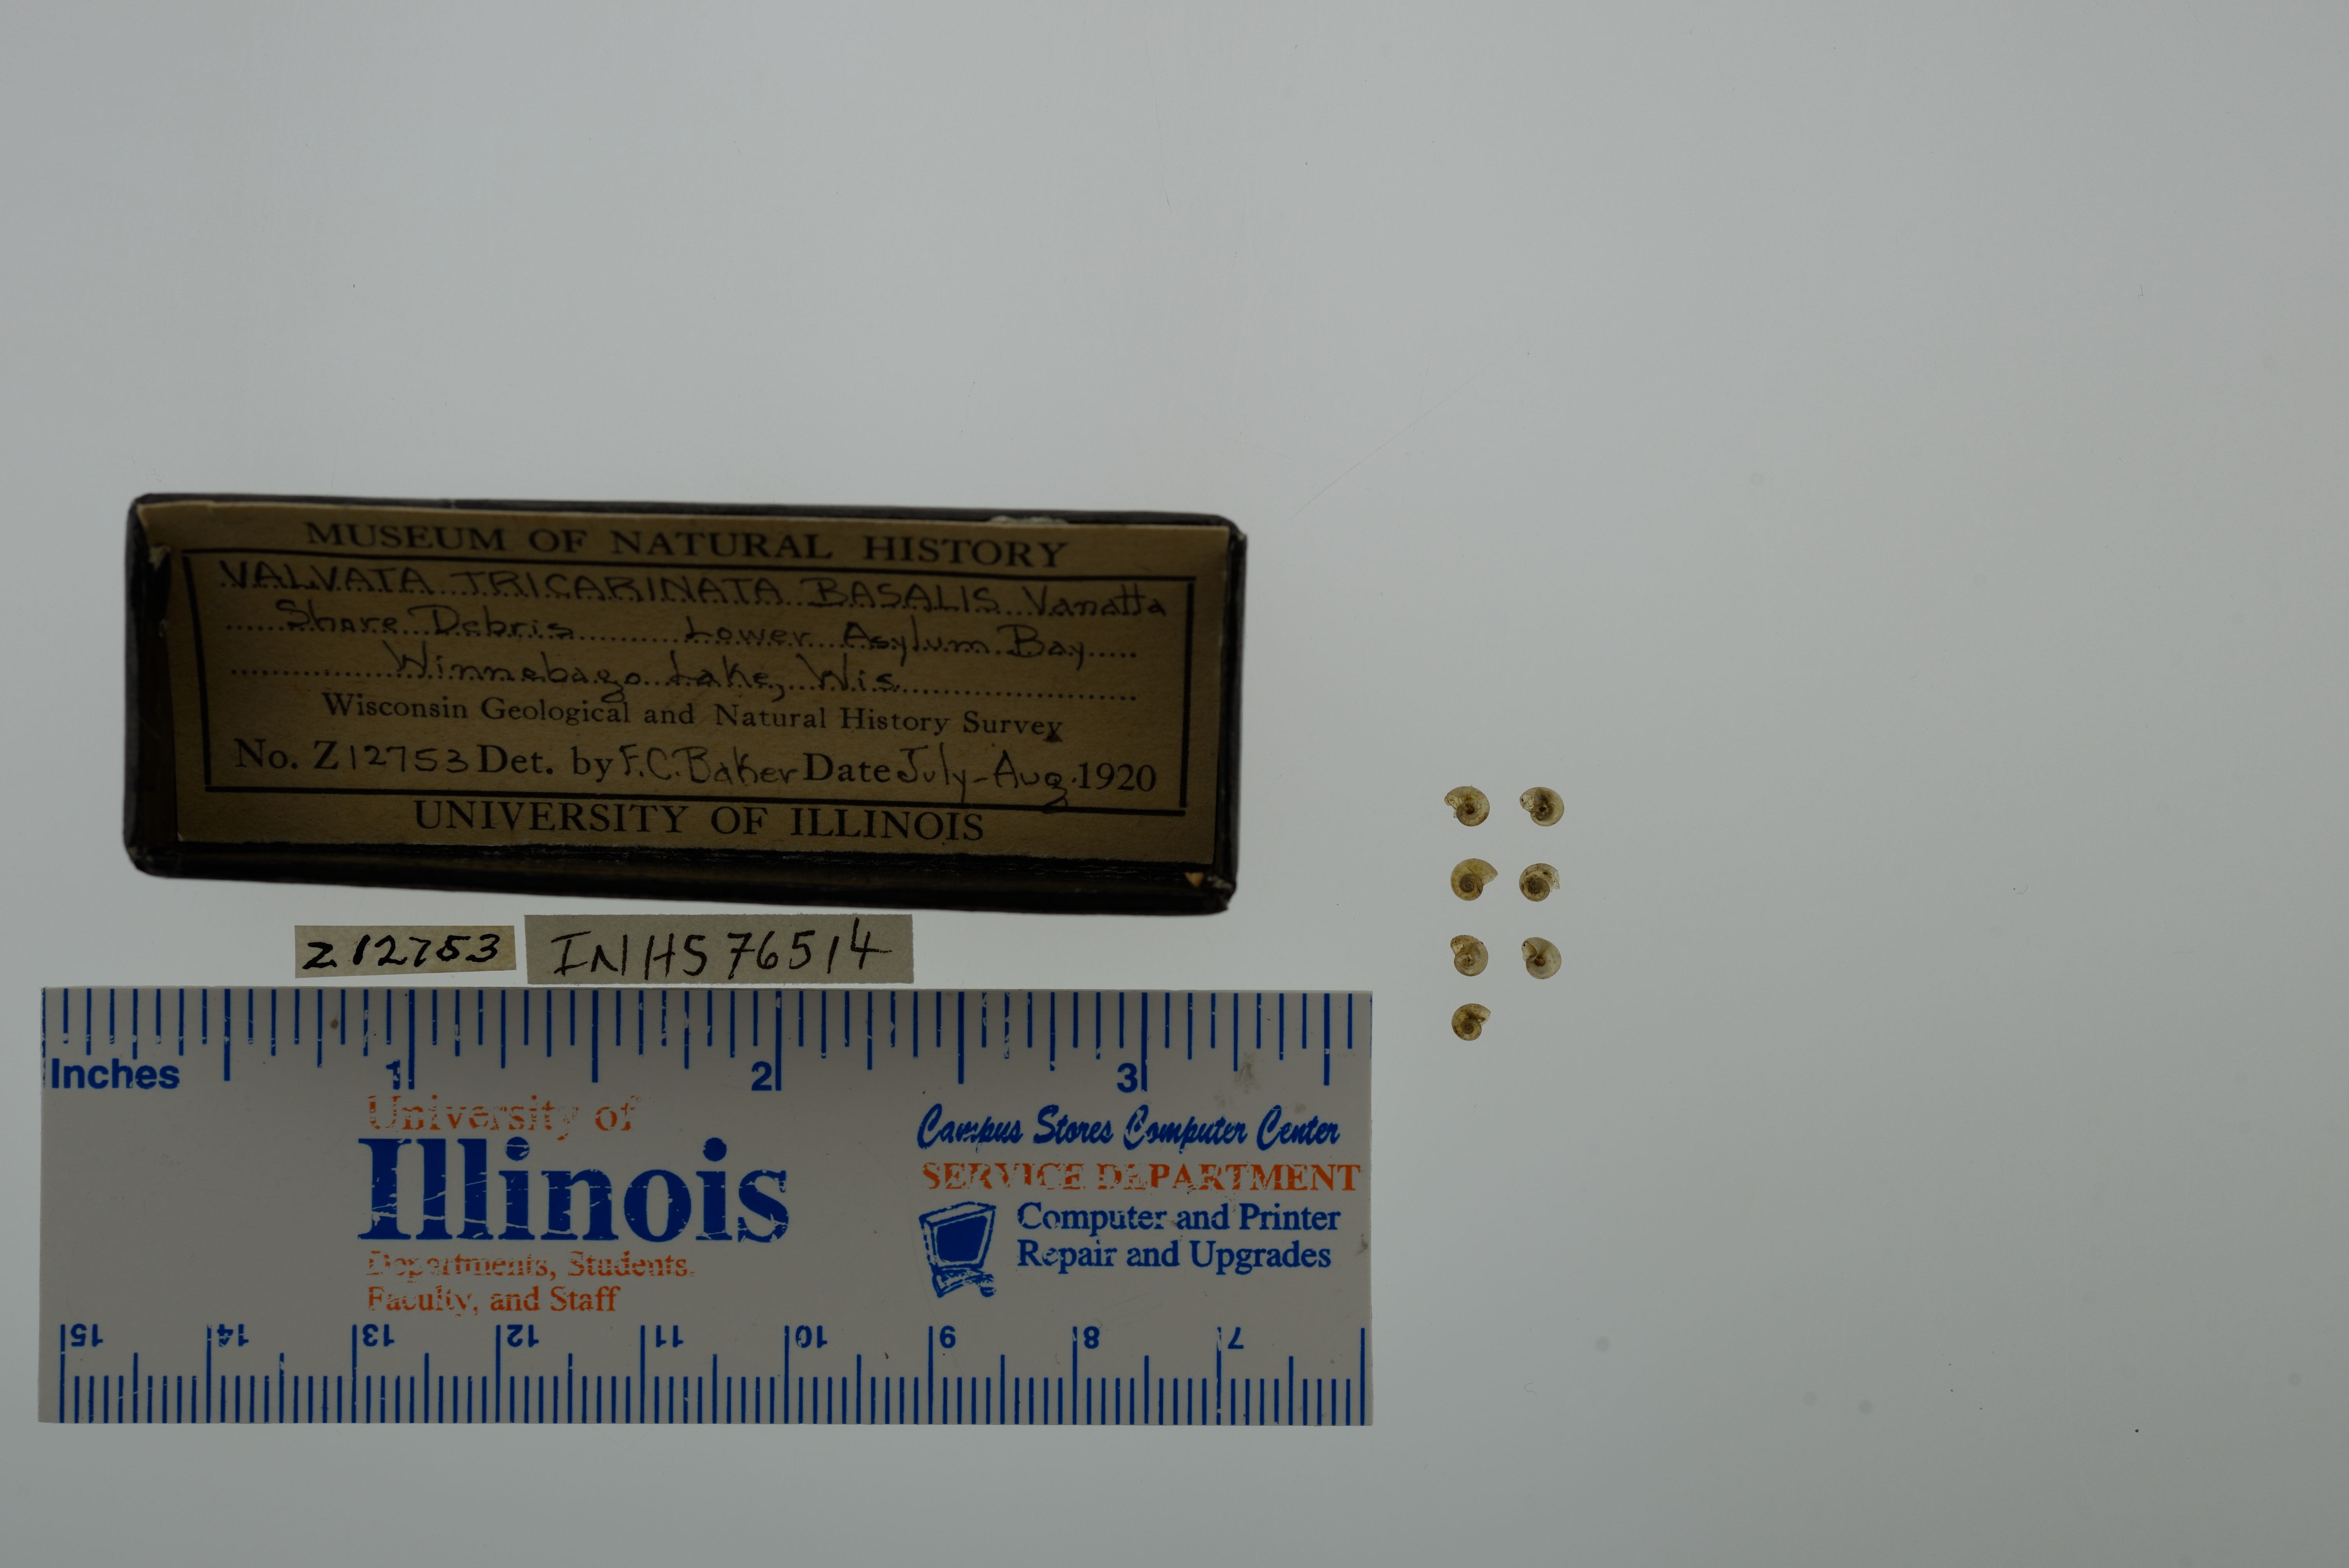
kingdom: Animalia
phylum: Mollusca
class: Gastropoda
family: Valvatidae
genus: Valvata
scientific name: Valvata tricarinata
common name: Three-ridge valvata
